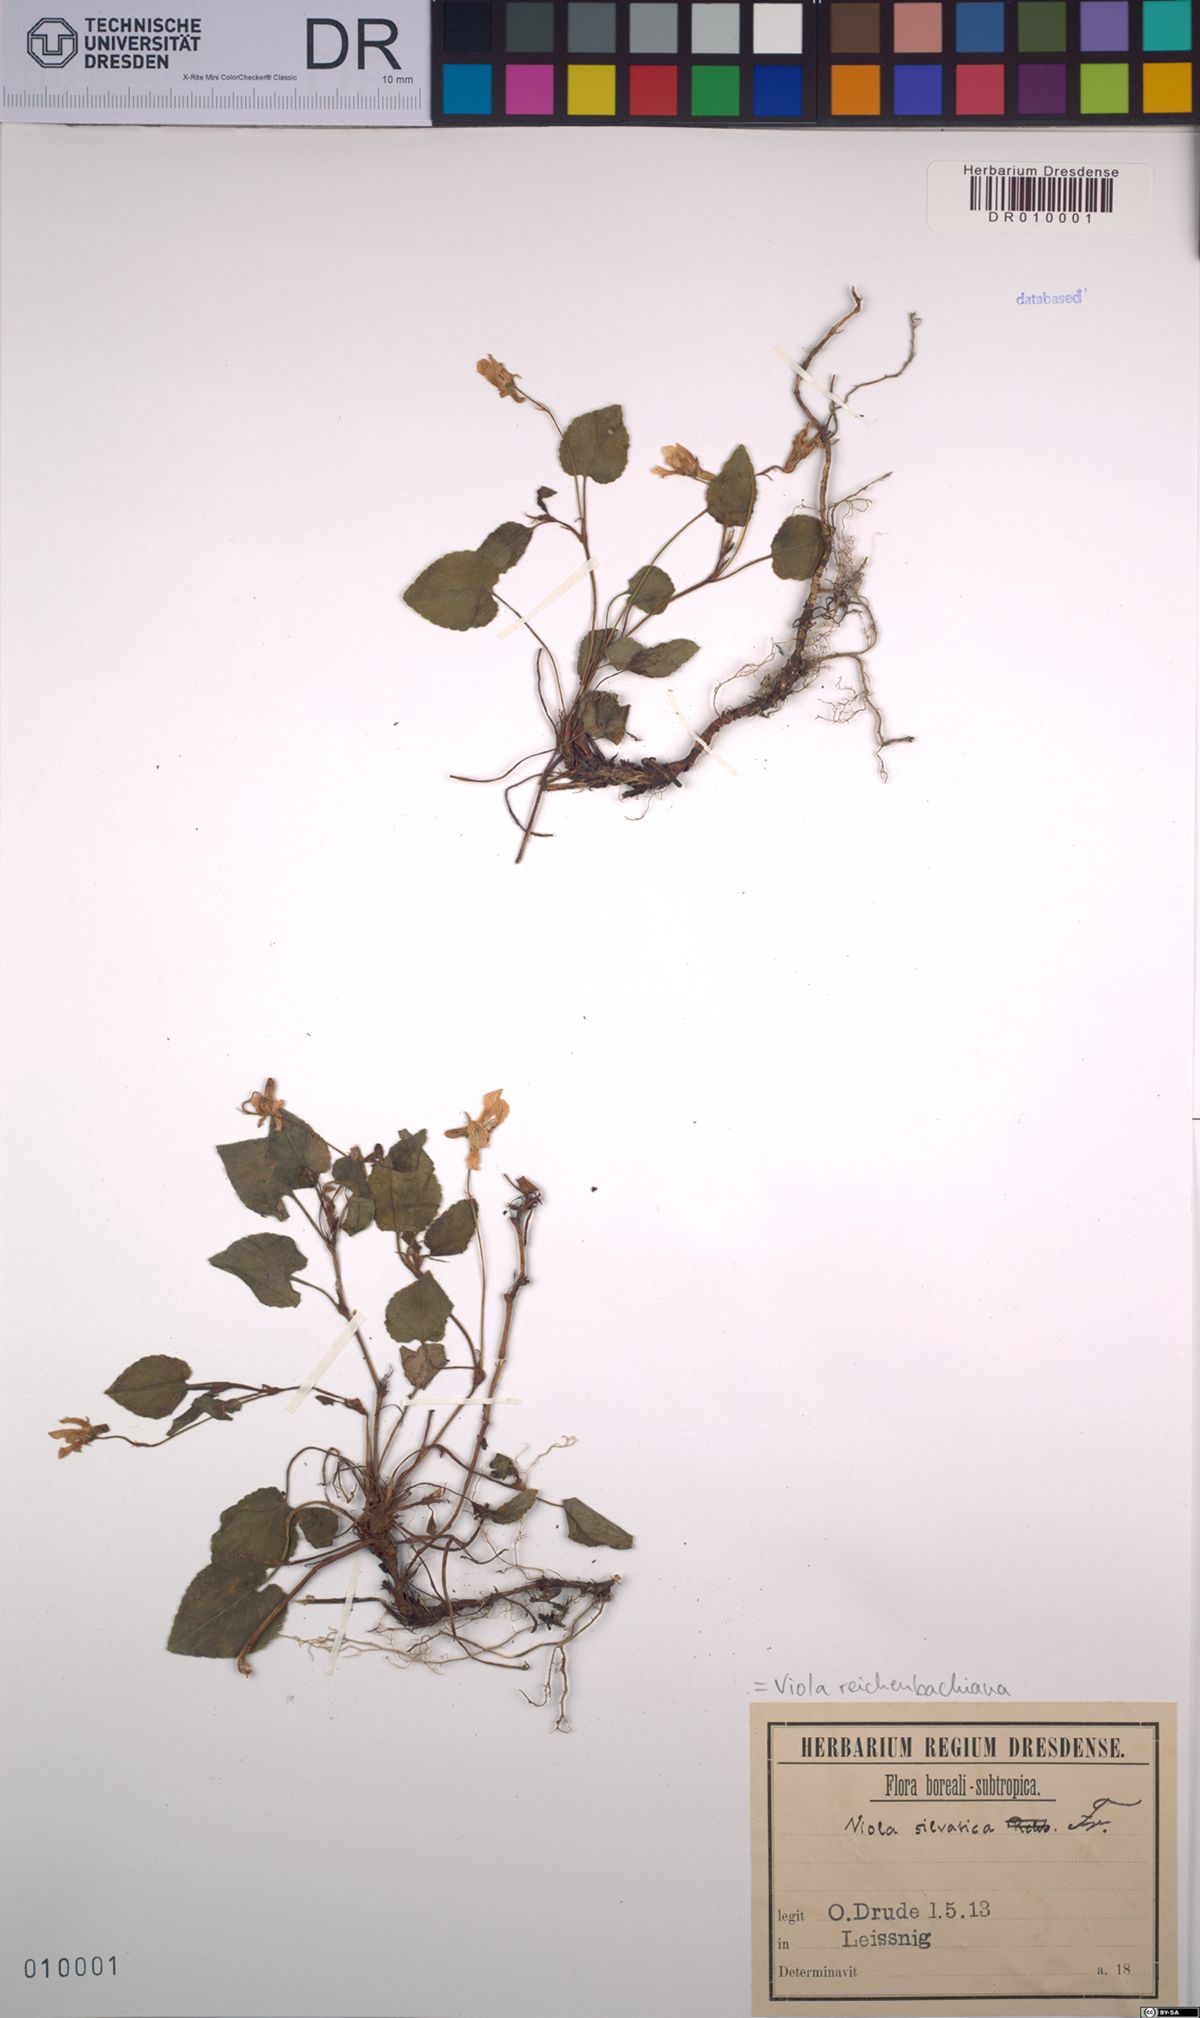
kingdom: Plantae
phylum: Tracheophyta
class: Magnoliopsida
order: Malpighiales
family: Violaceae
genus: Viola
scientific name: Viola reichenbachiana
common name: Early dog-violet
